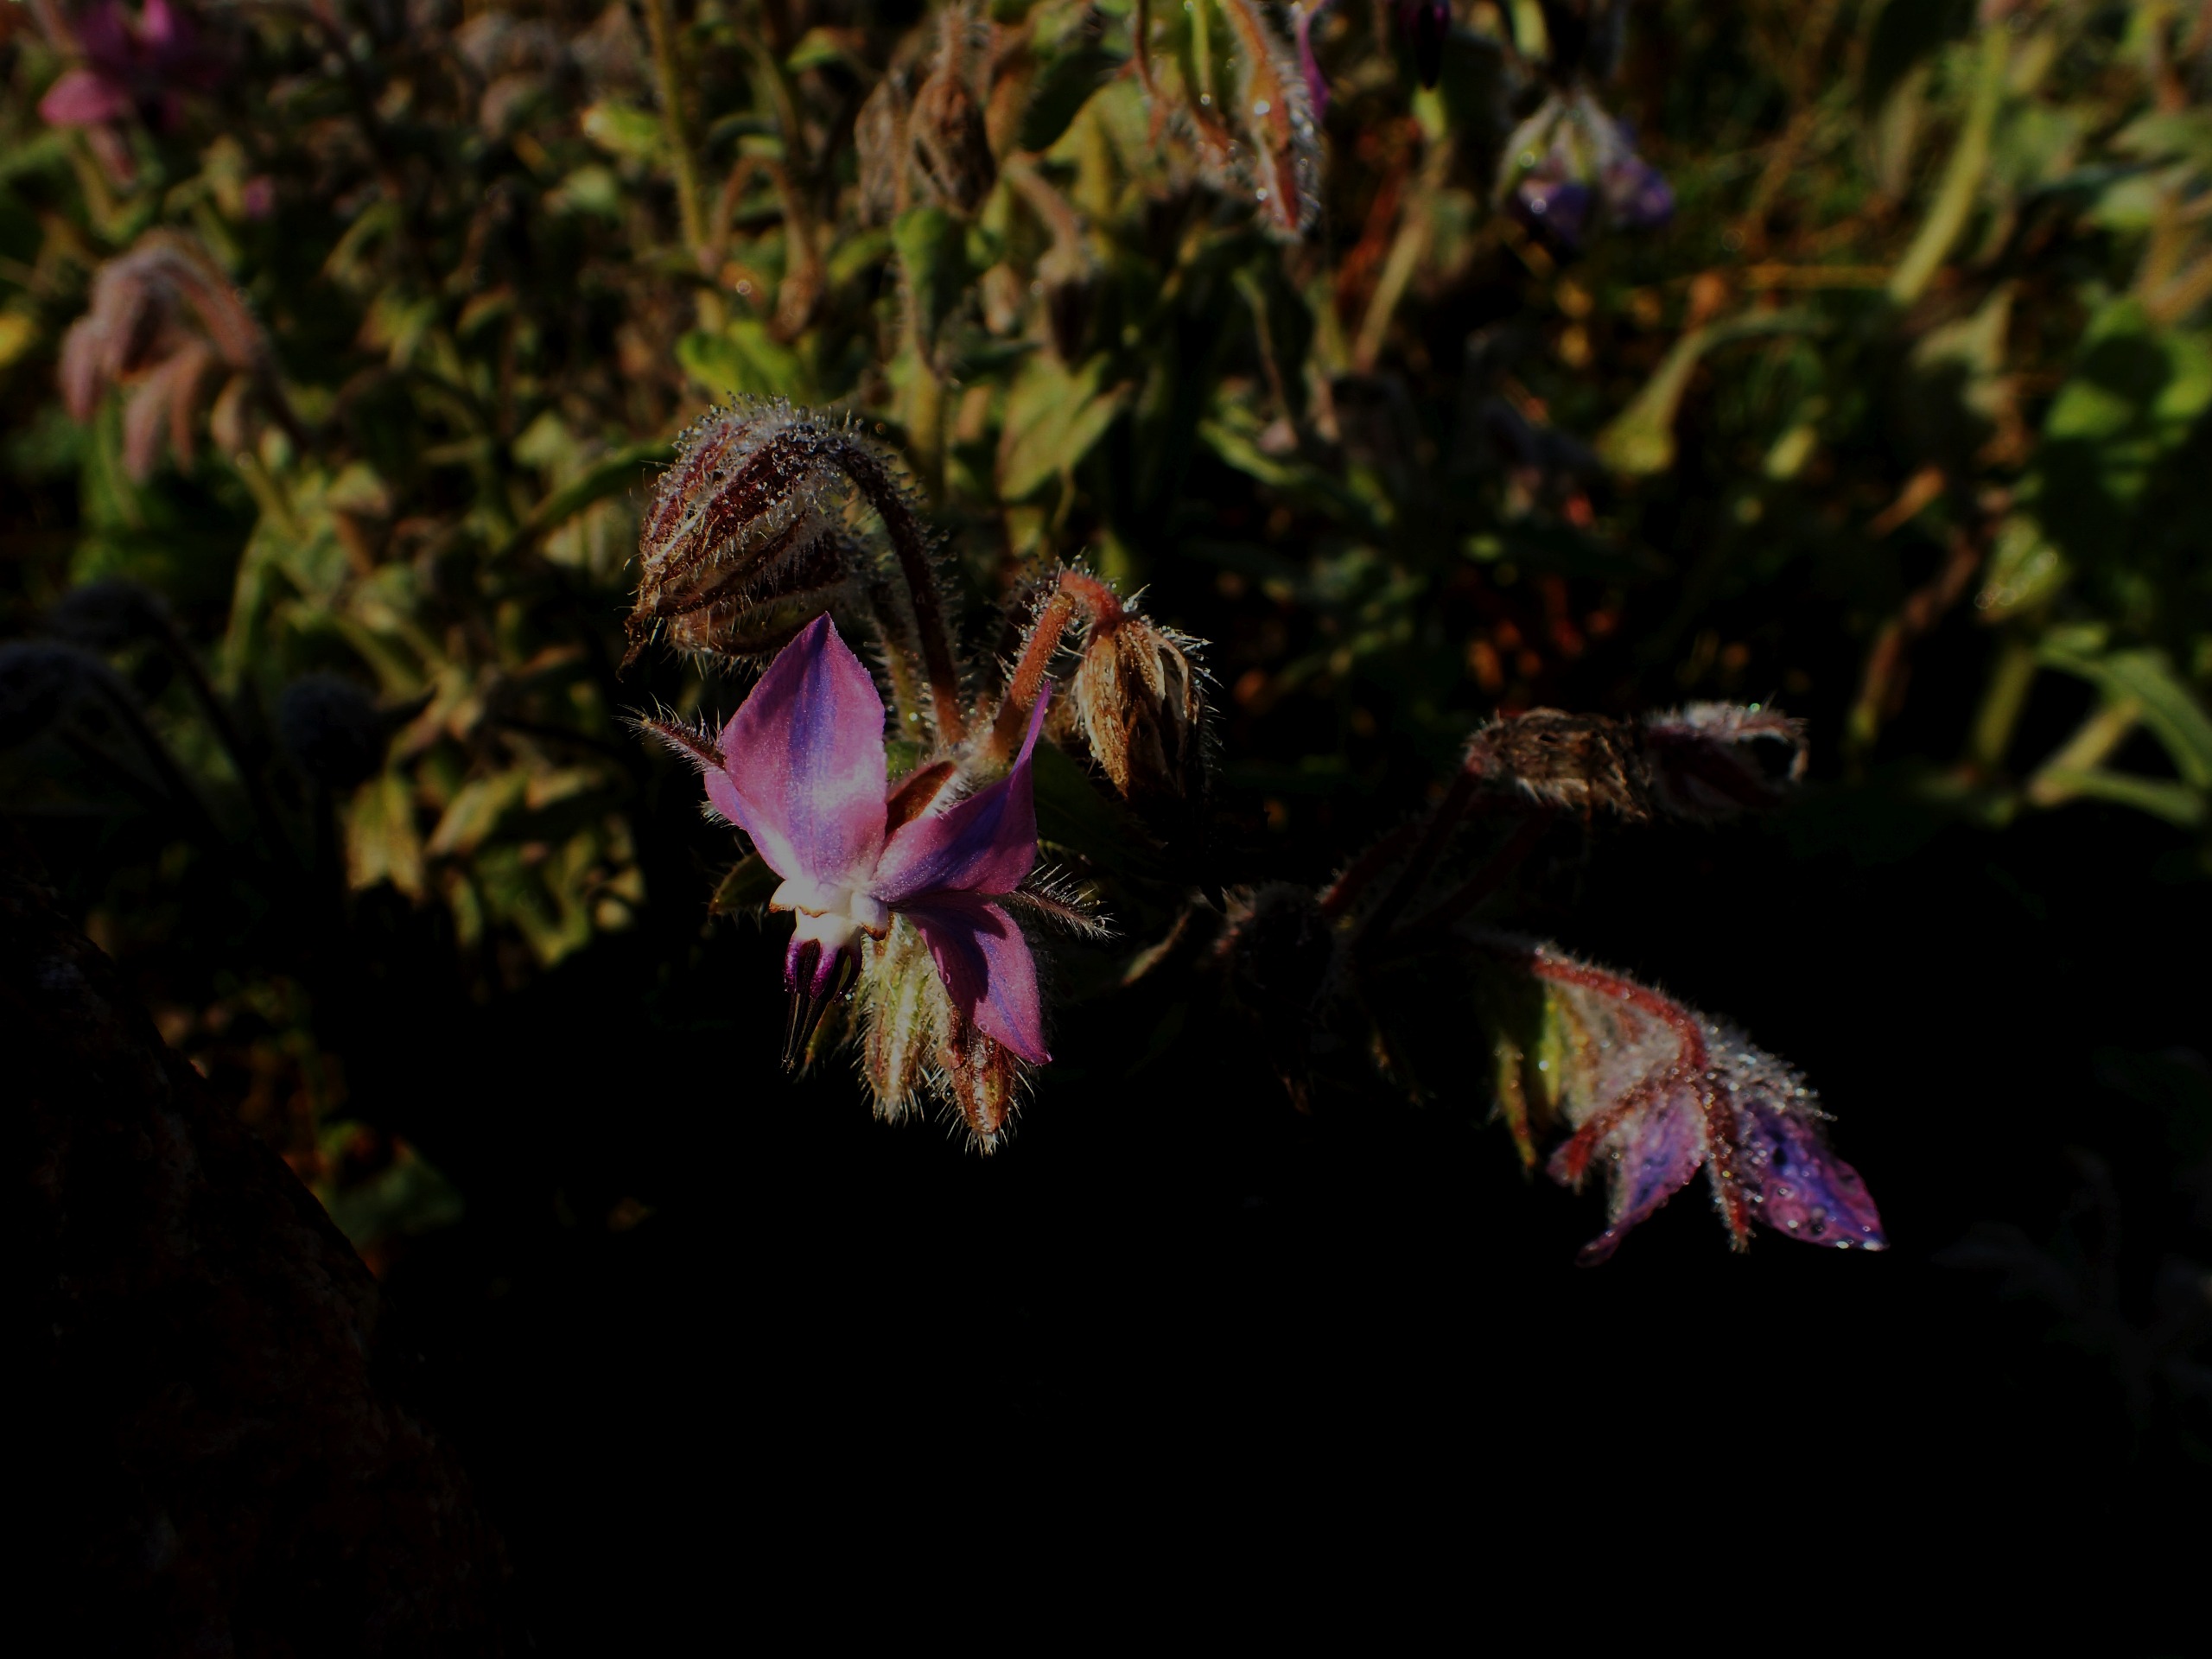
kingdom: Plantae
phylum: Tracheophyta
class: Magnoliopsida
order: Boraginales
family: Boraginaceae
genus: Borago
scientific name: Borago officinalis
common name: Hjulkrone
